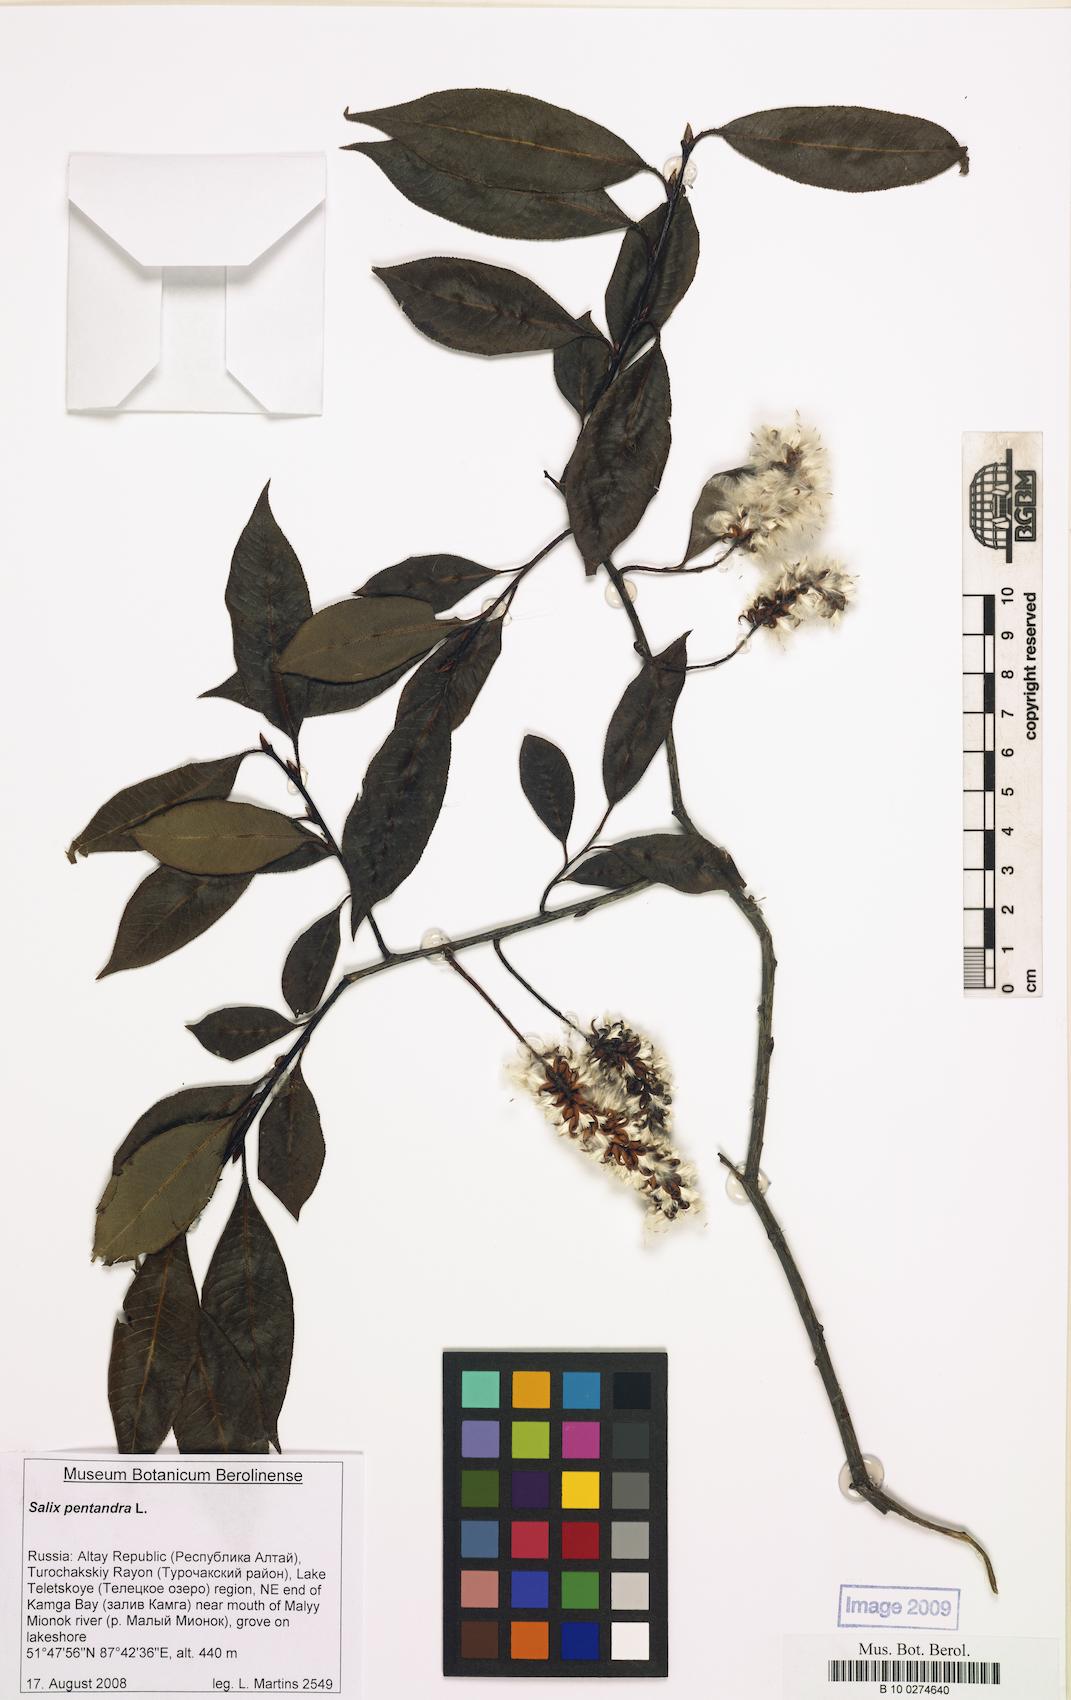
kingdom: Plantae
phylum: Tracheophyta
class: Magnoliopsida
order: Malpighiales
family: Salicaceae
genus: Salix
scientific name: Salix pentandra
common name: Bay willow
